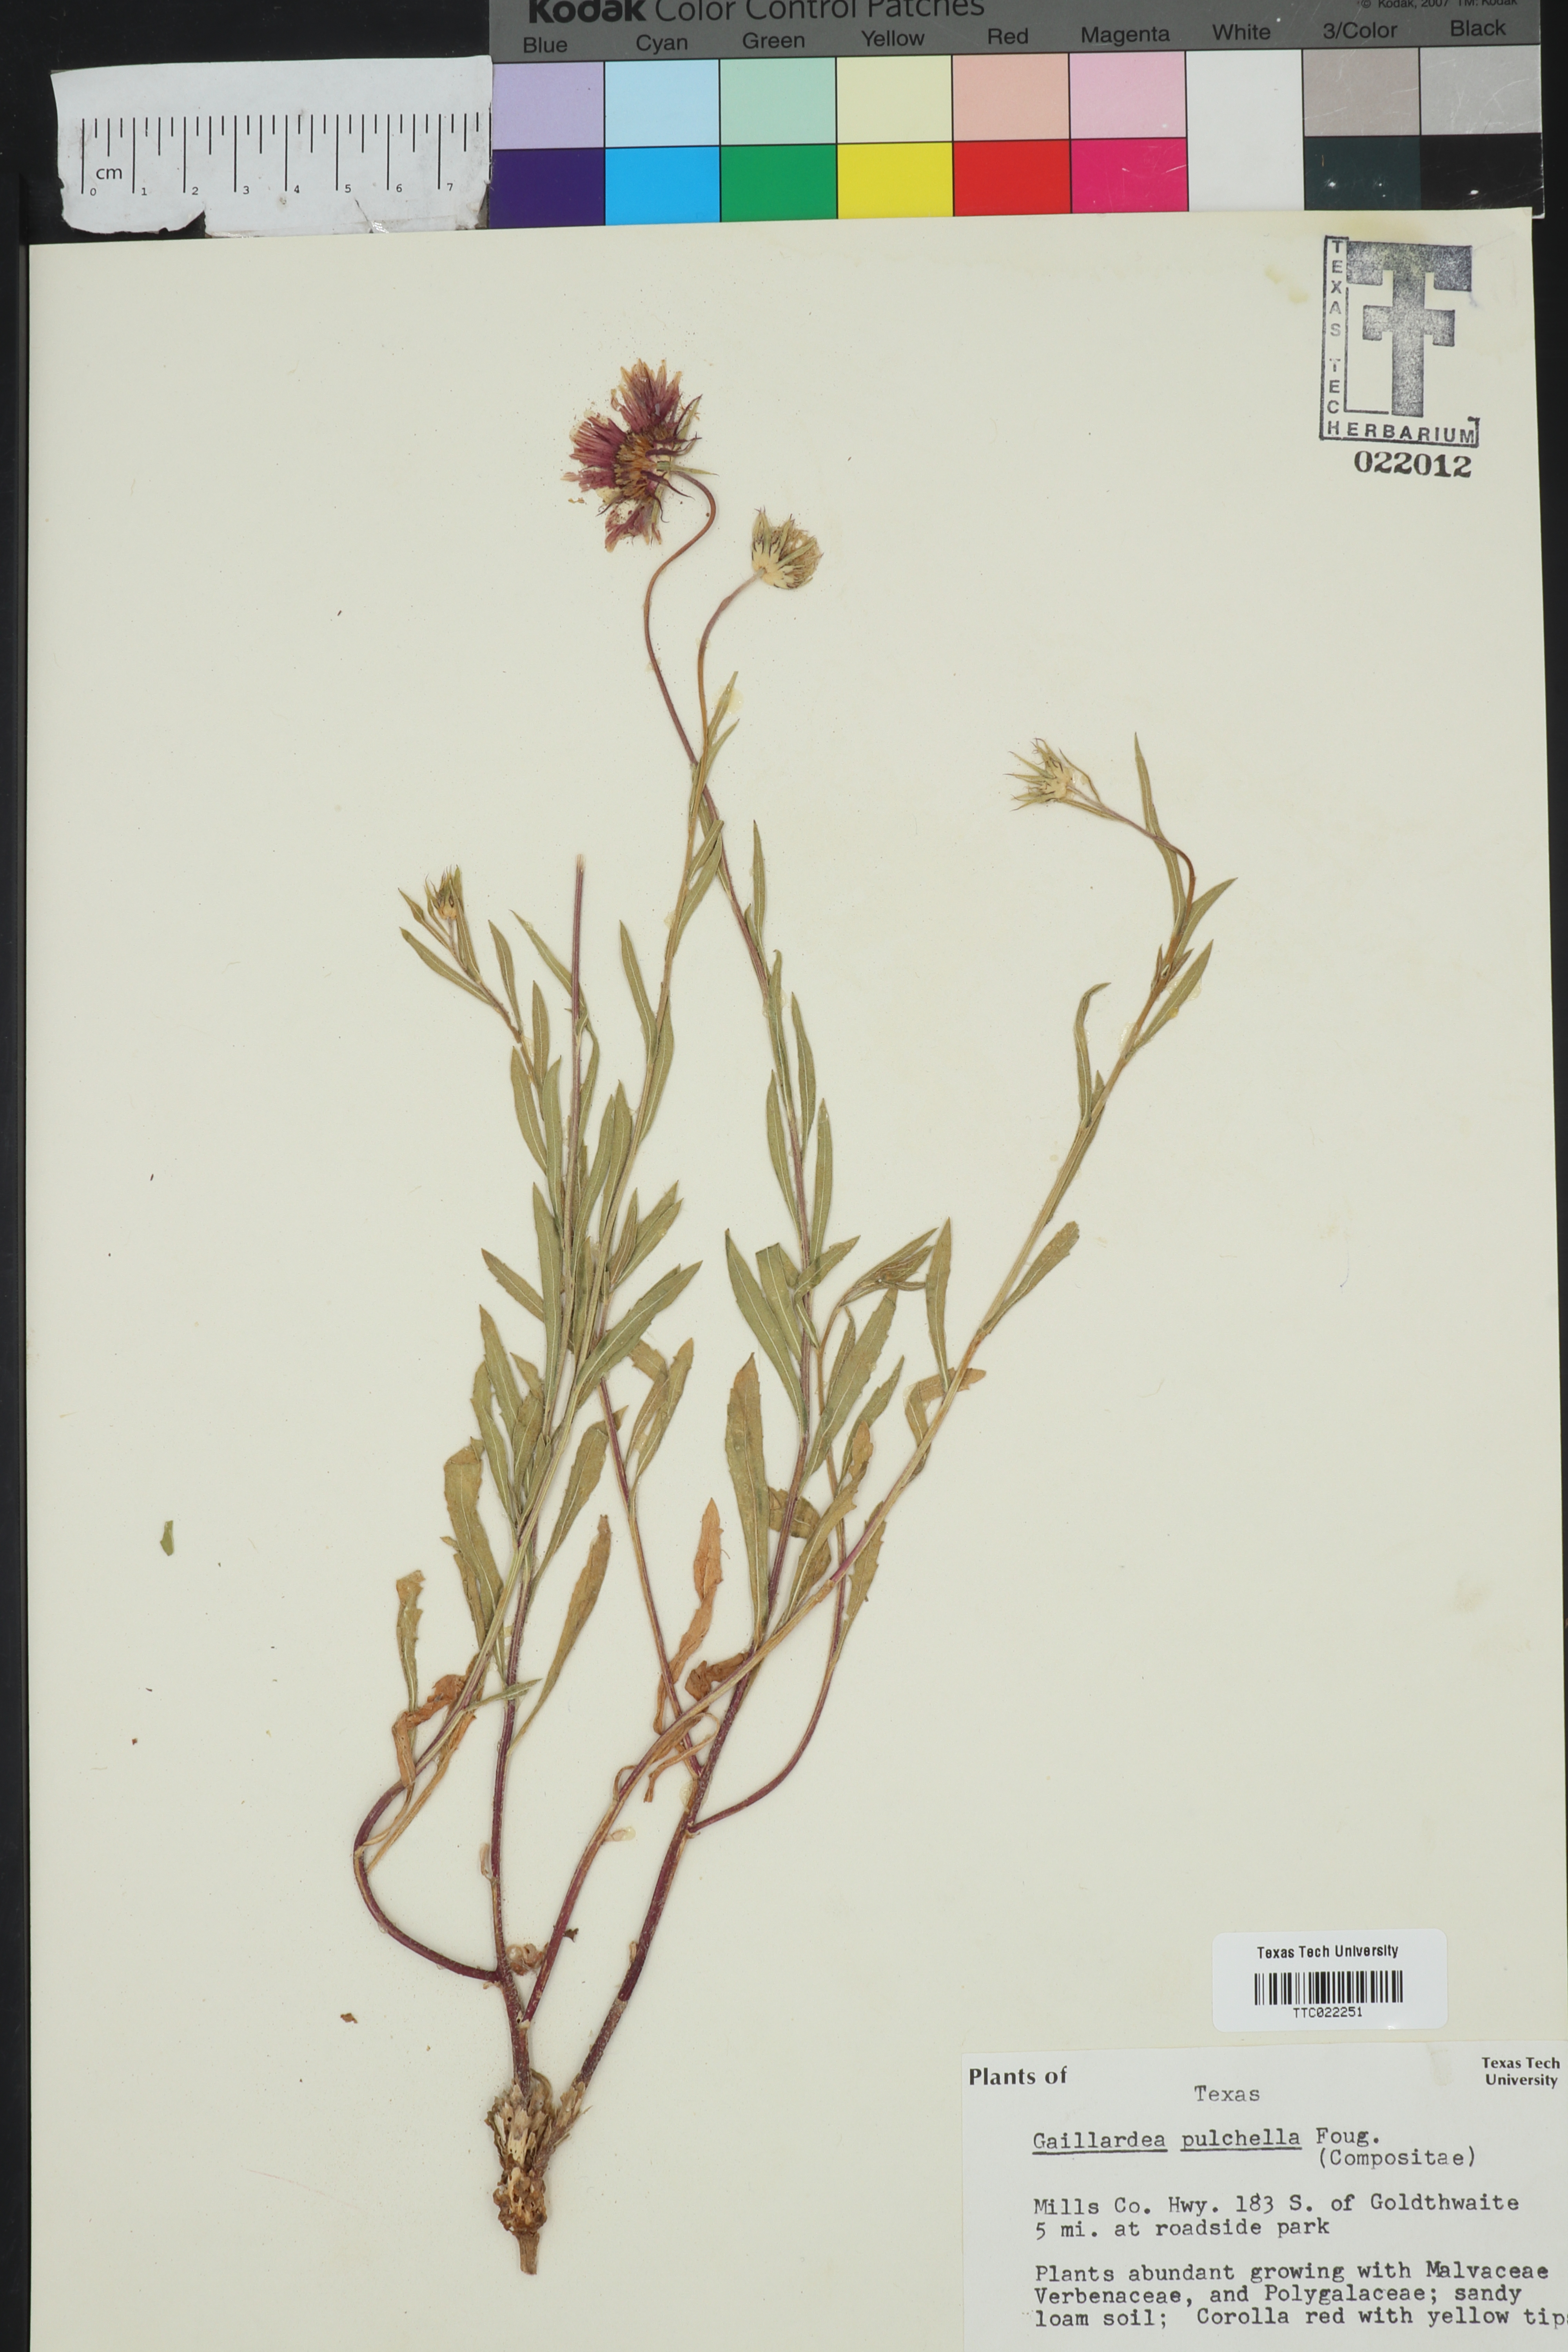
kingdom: Plantae
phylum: Tracheophyta
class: Magnoliopsida
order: Asterales
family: Asteraceae
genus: Gaillardia
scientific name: Gaillardia pulchella
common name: Firewheel
